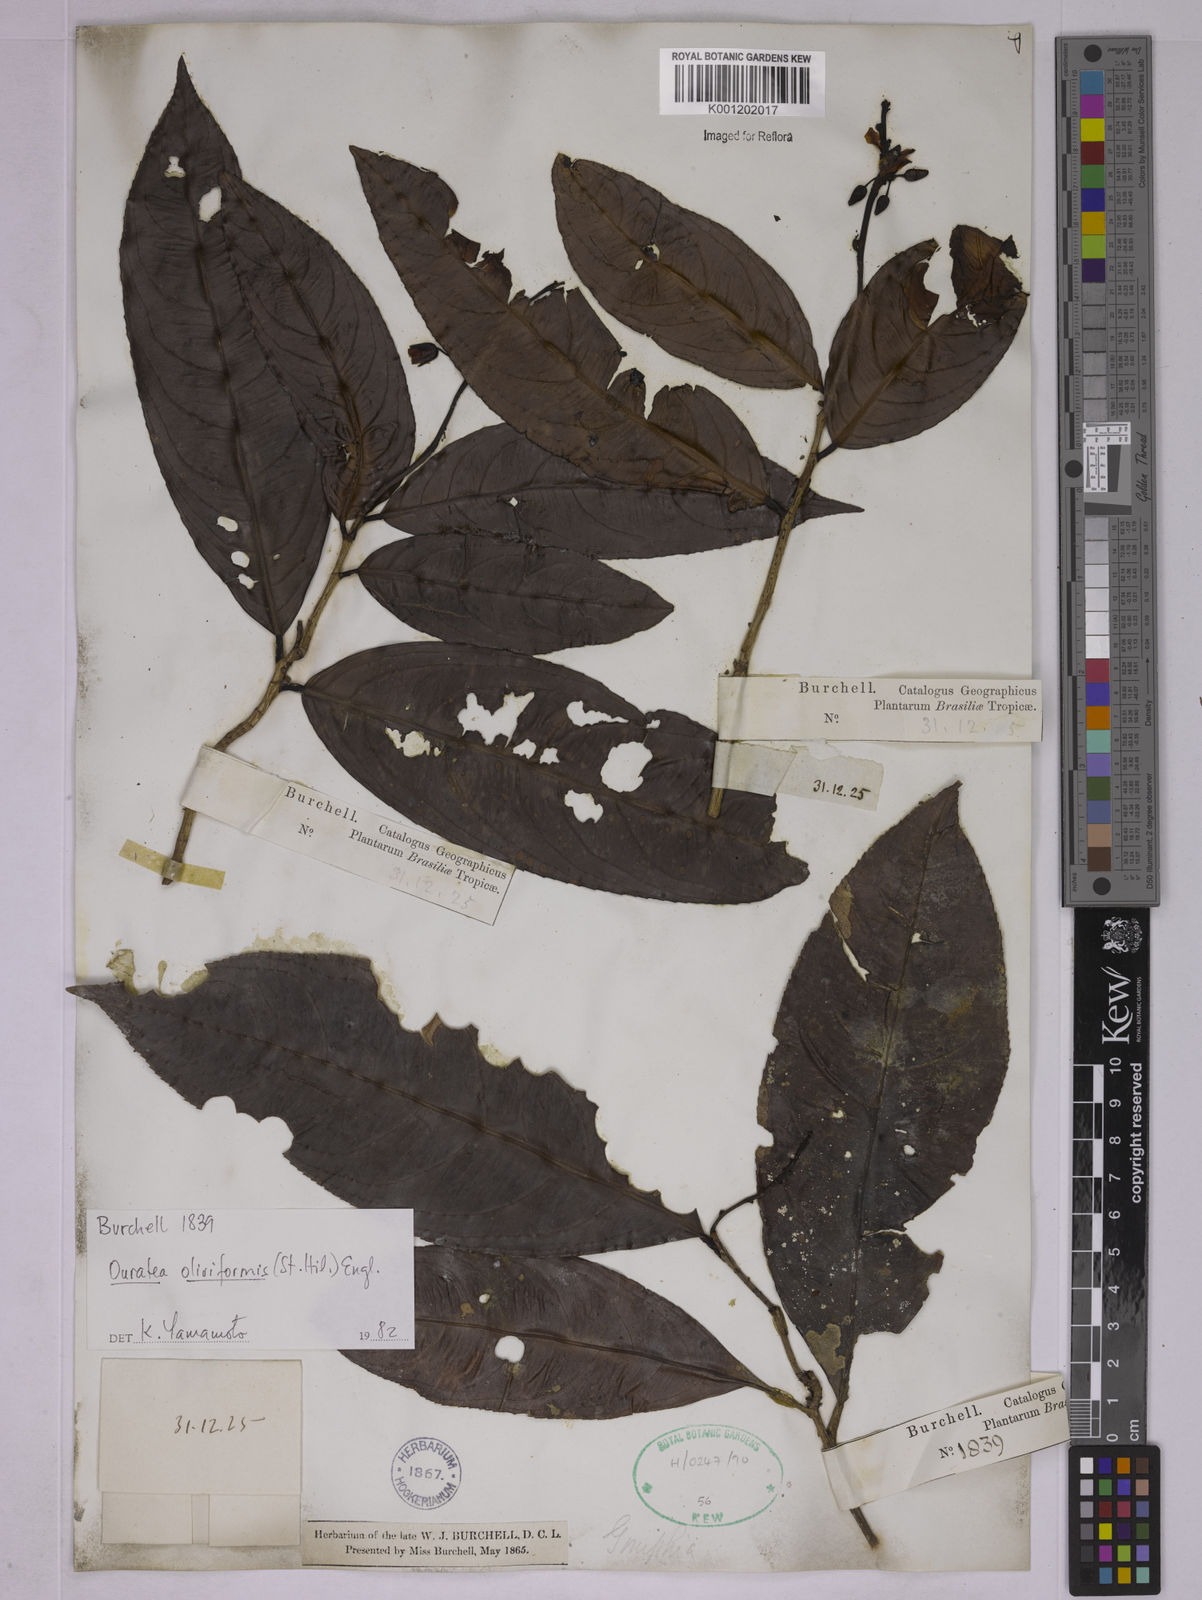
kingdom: Plantae
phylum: Tracheophyta
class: Magnoliopsida
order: Malpighiales
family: Ochnaceae
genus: Ouratea
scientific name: Ouratea oliviformis
